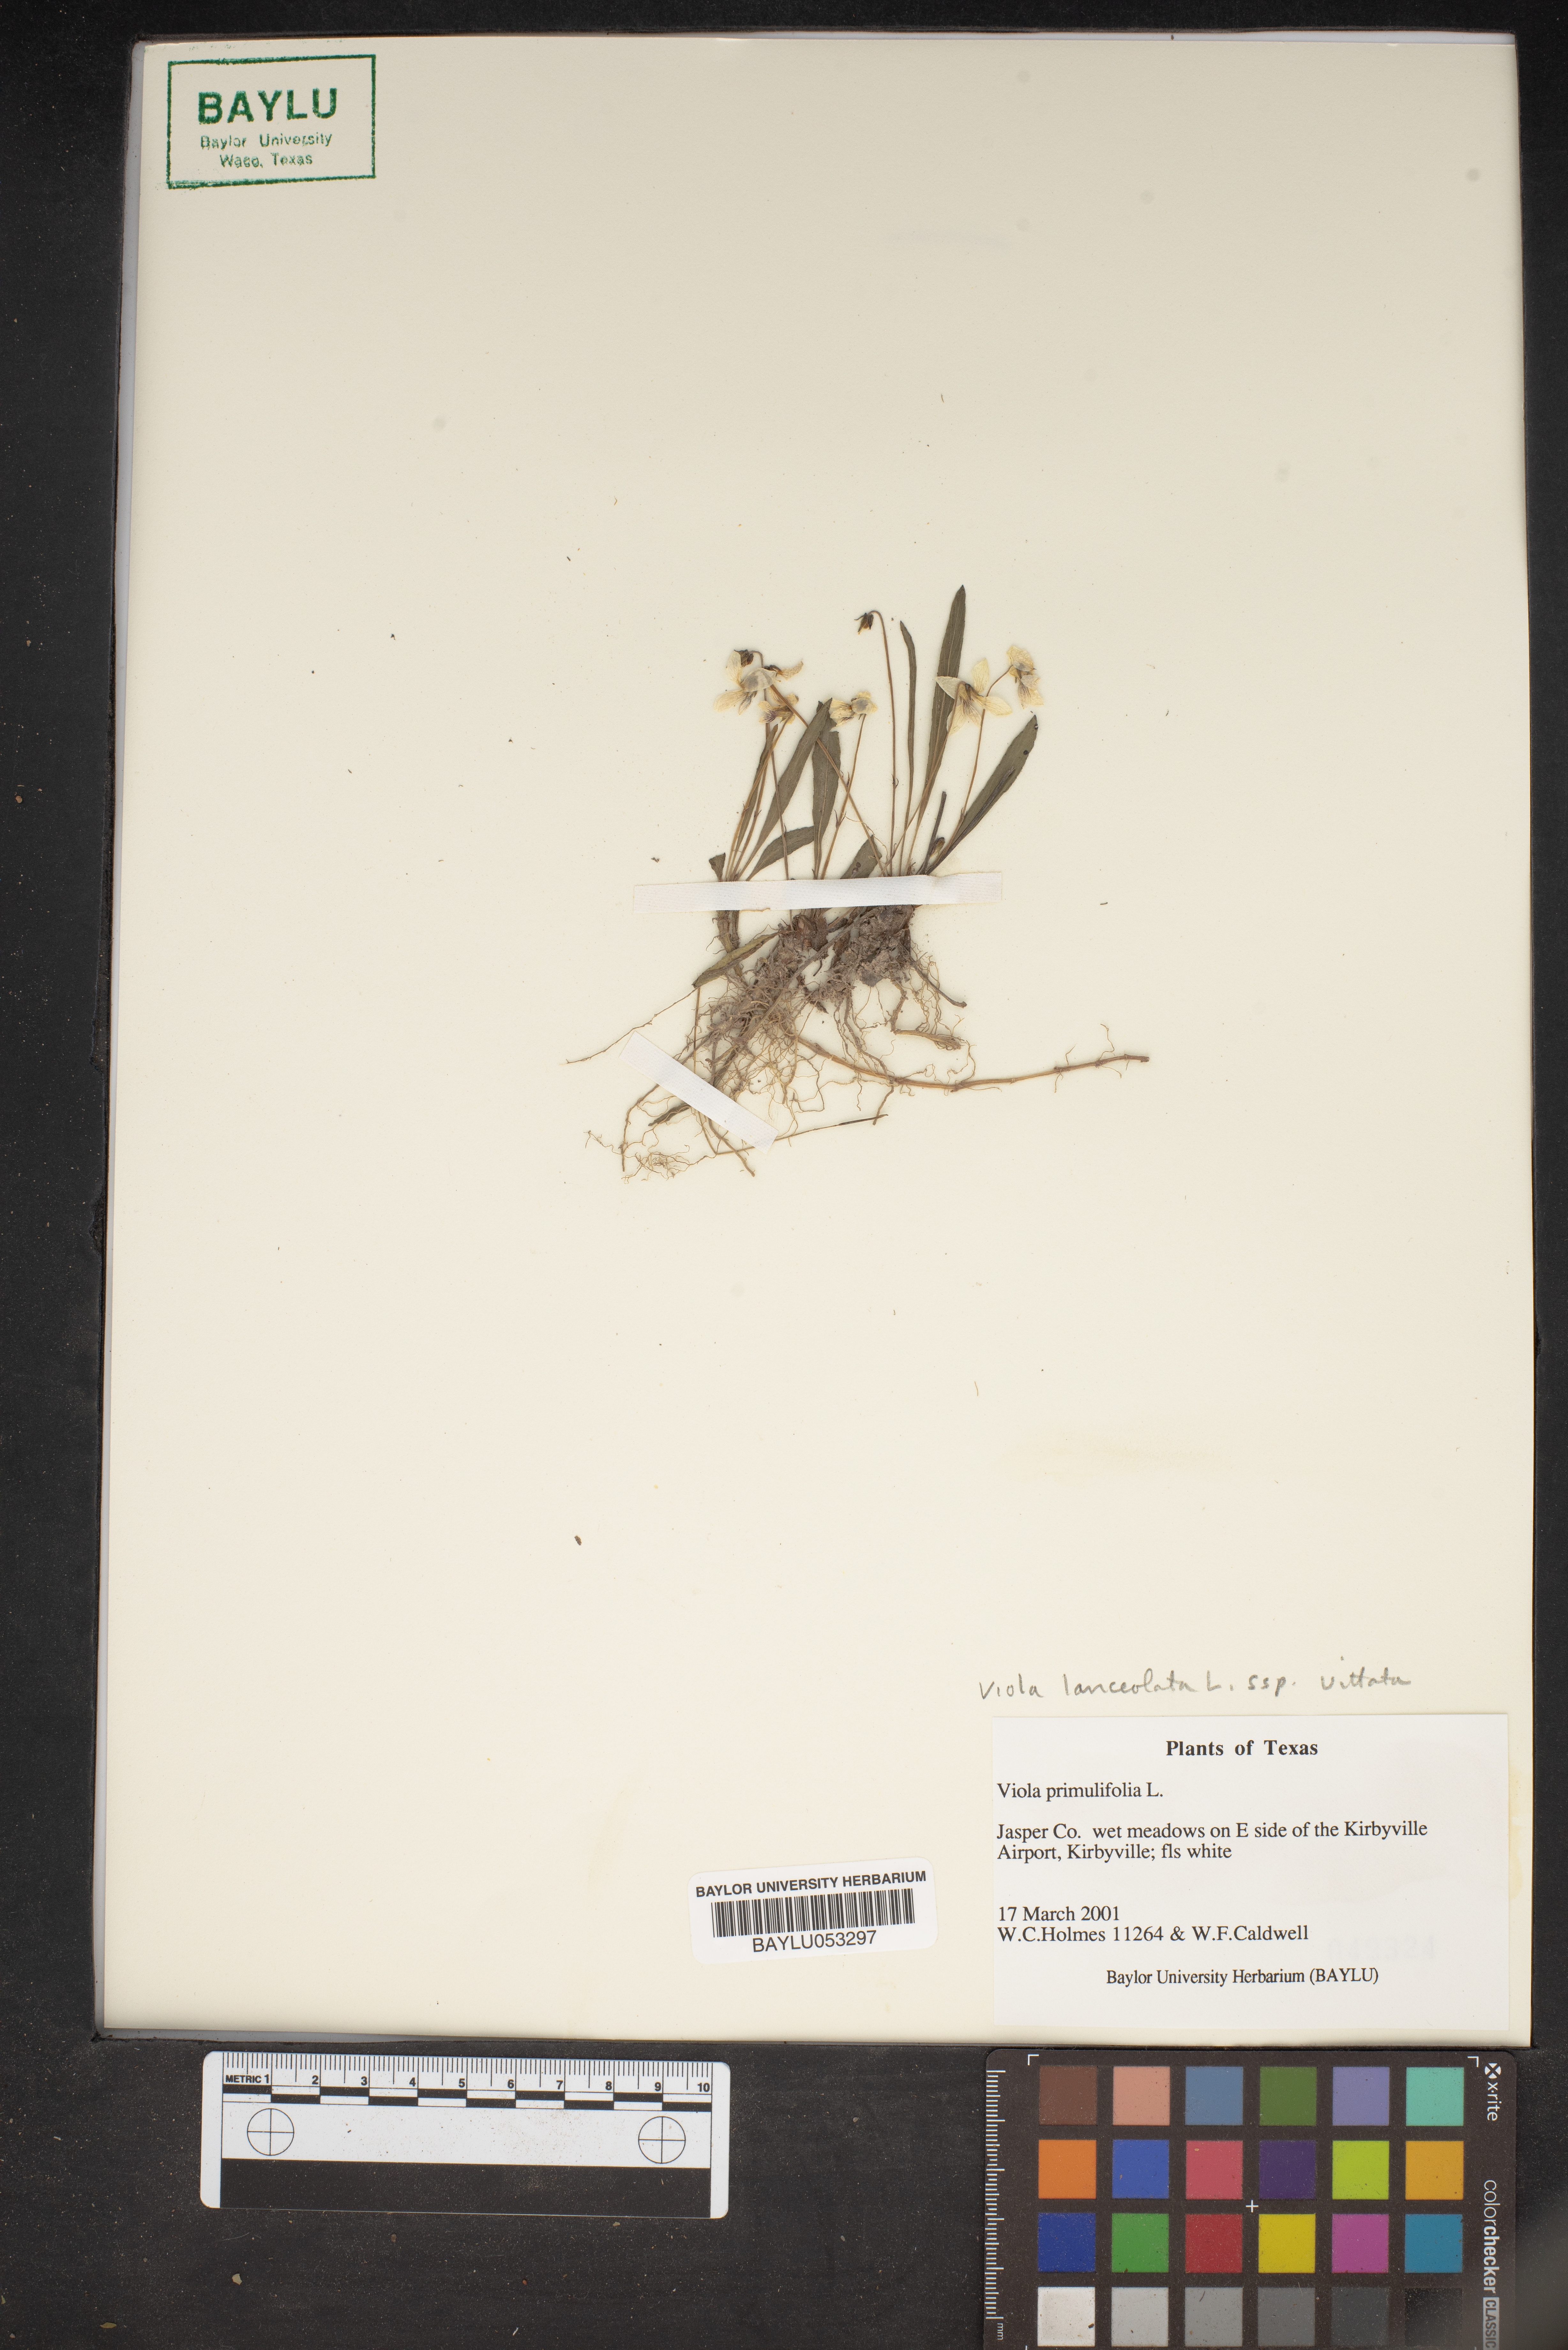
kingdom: Plantae
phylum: Tracheophyta
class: Magnoliopsida
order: Malpighiales
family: Violaceae
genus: Viola
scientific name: Viola primulifolia
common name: Primrose-leaf violet
